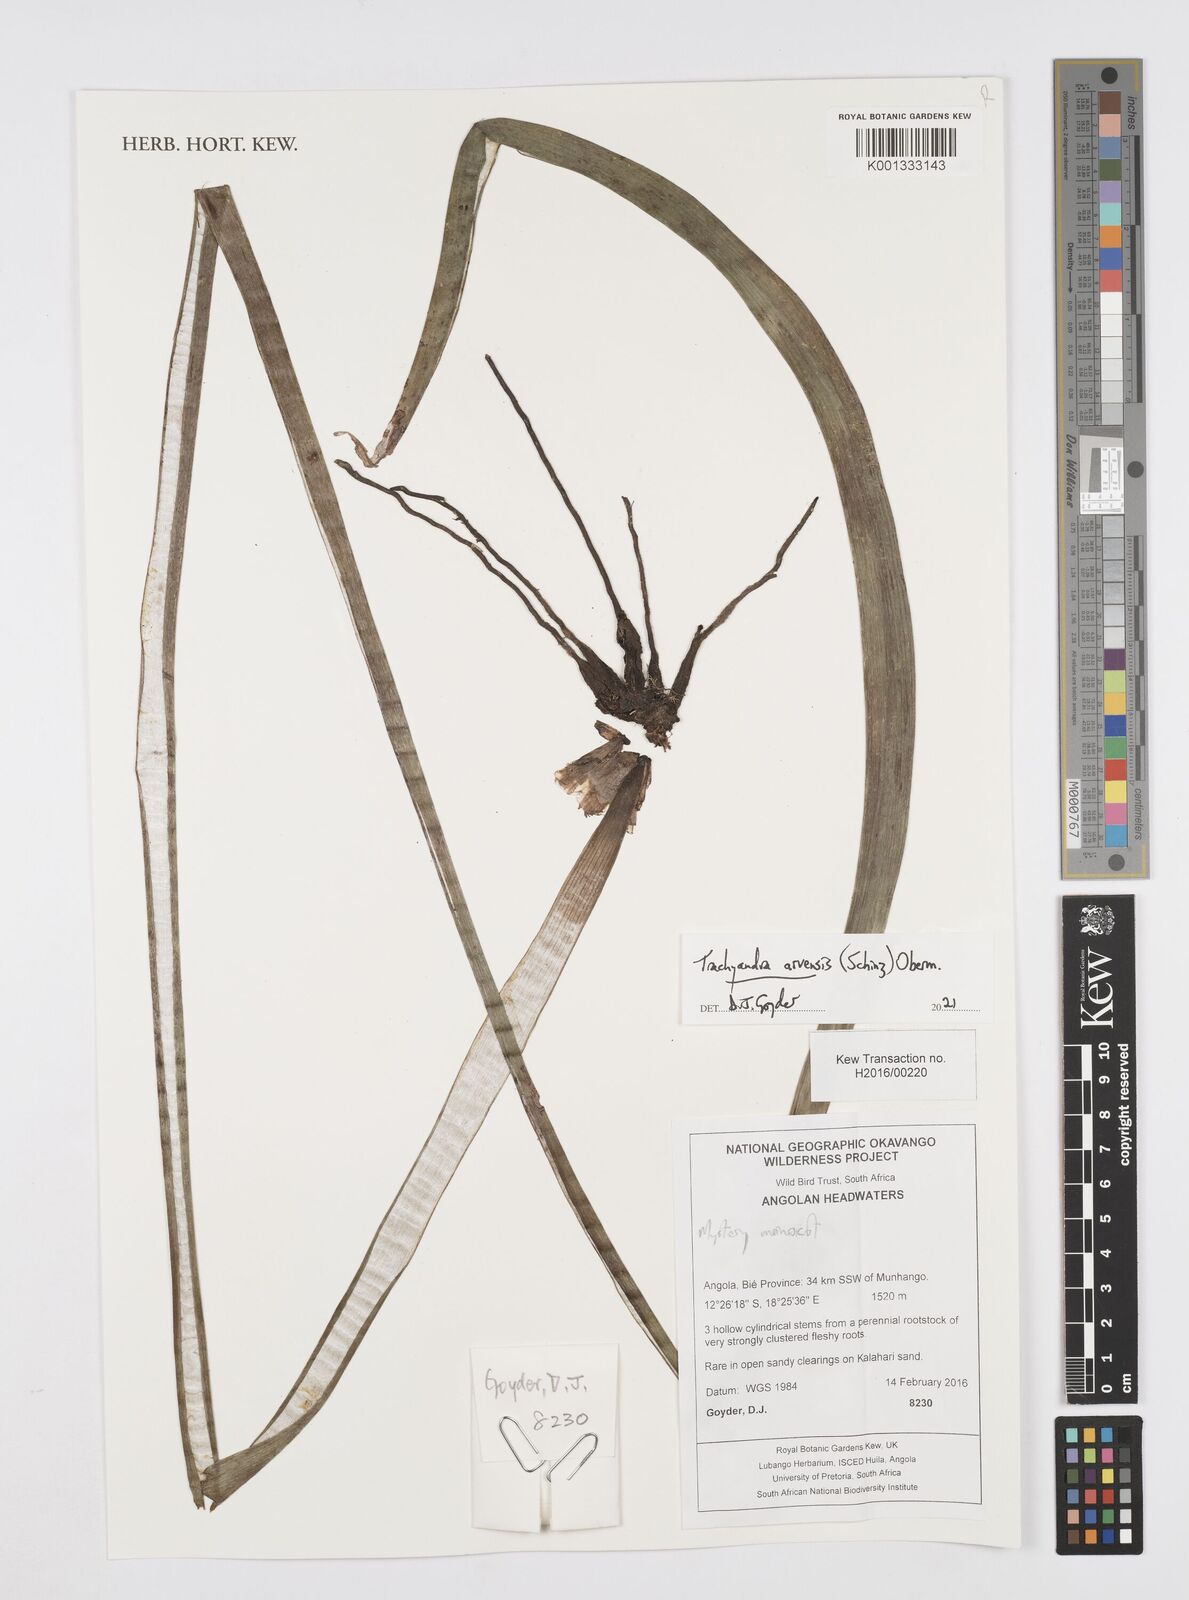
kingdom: Plantae
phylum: Tracheophyta
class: Liliopsida
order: Asparagales
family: Asphodelaceae
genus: Trachyandra
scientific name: Trachyandra arvensis
